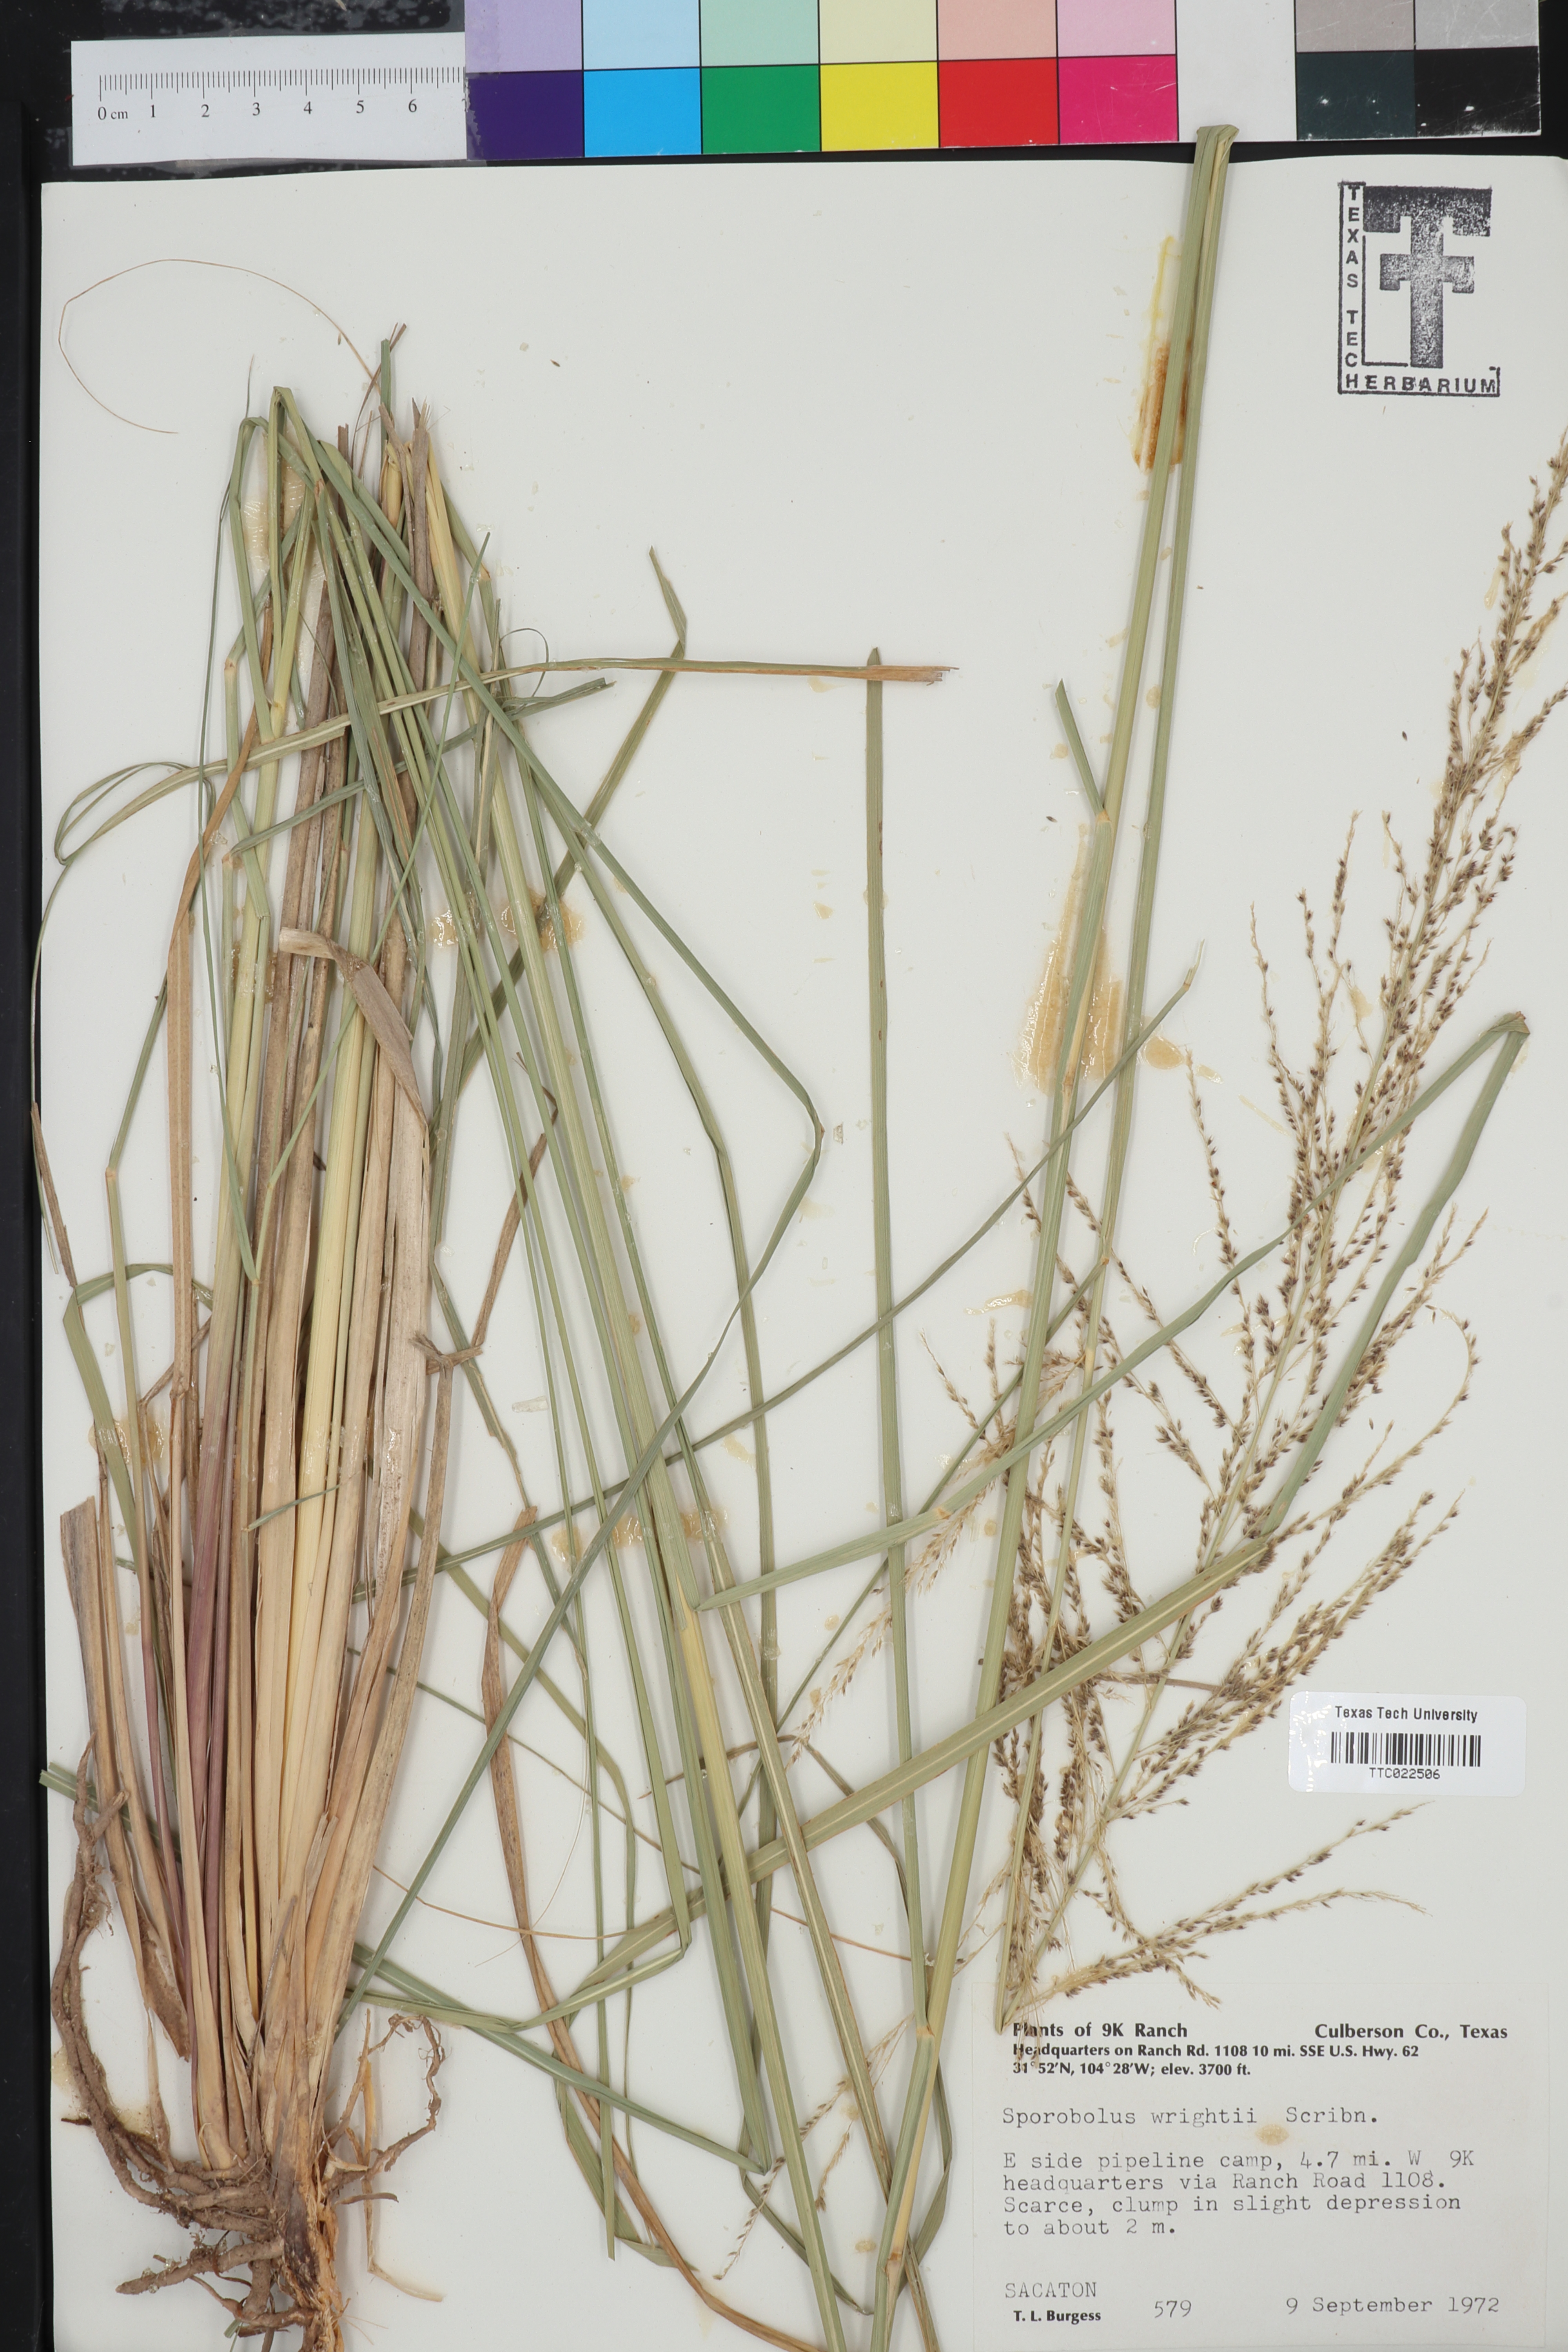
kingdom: Plantae
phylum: Tracheophyta
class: Liliopsida
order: Poales
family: Poaceae
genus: Sporobolus
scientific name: Sporobolus wrightii
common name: Big alkali sacaton
